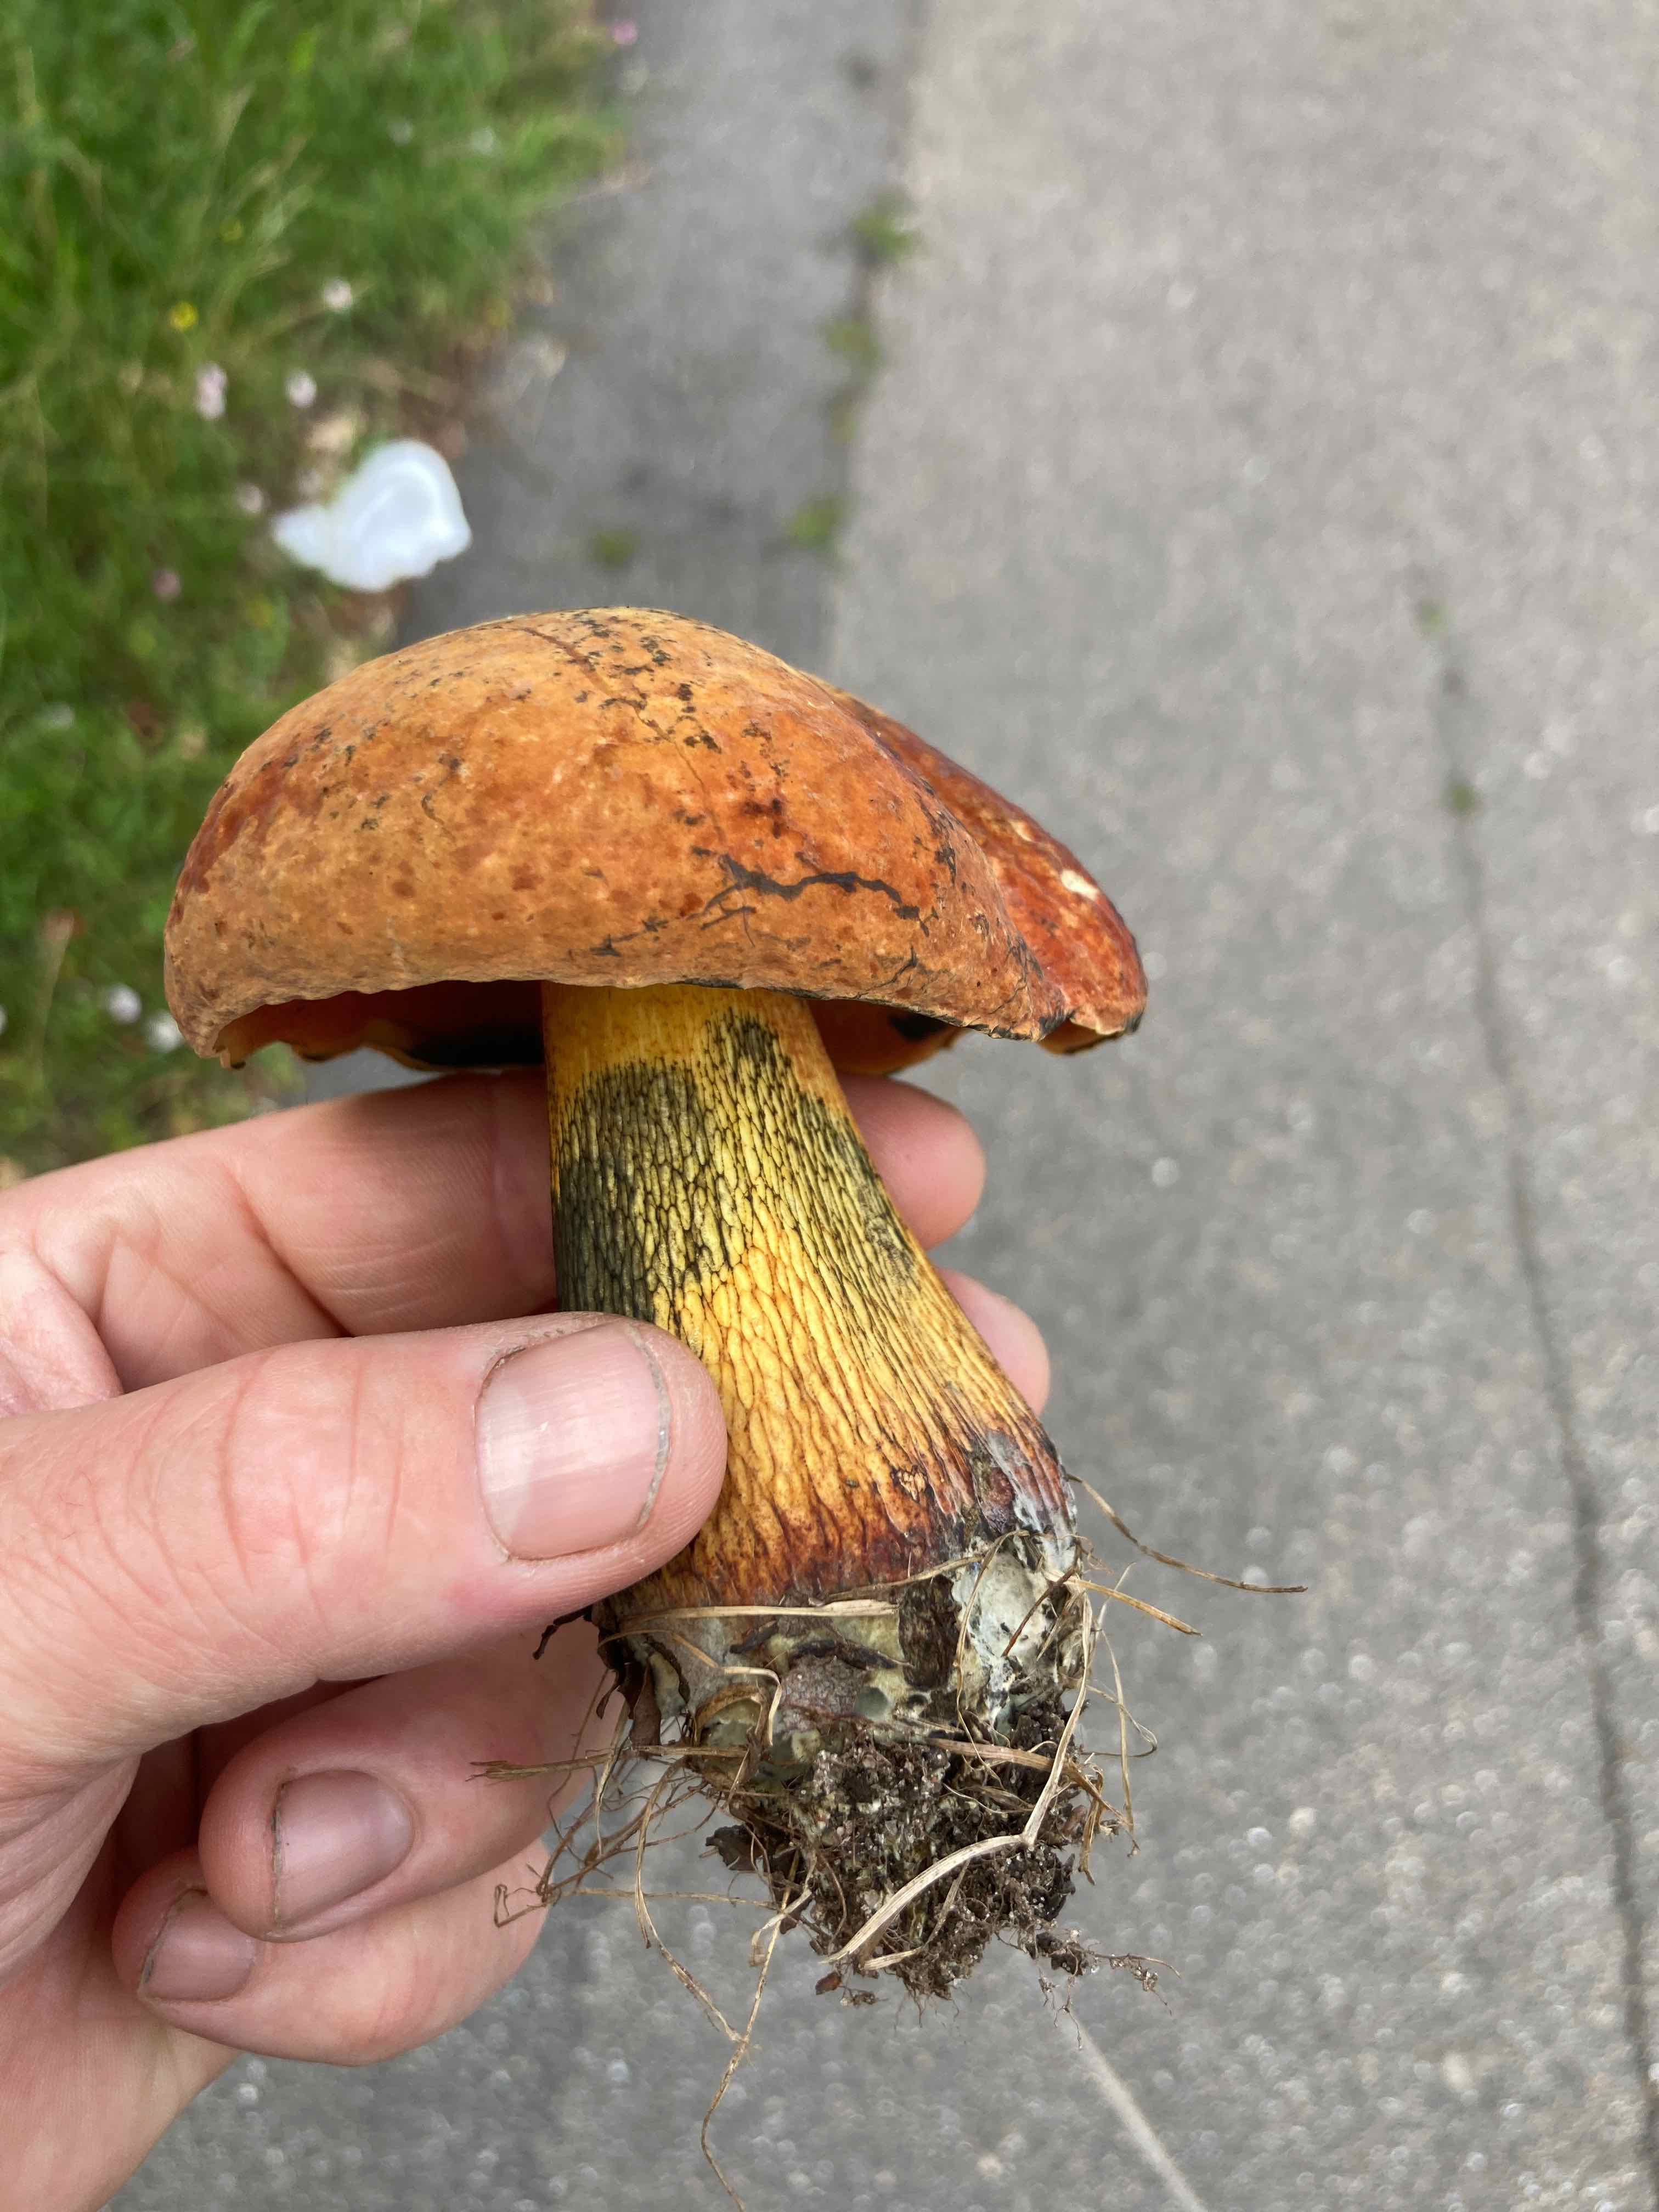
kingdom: Fungi
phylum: Basidiomycota
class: Agaricomycetes
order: Boletales
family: Boletaceae
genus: Suillellus
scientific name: Suillellus luridus
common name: netstokket indigorørhat
